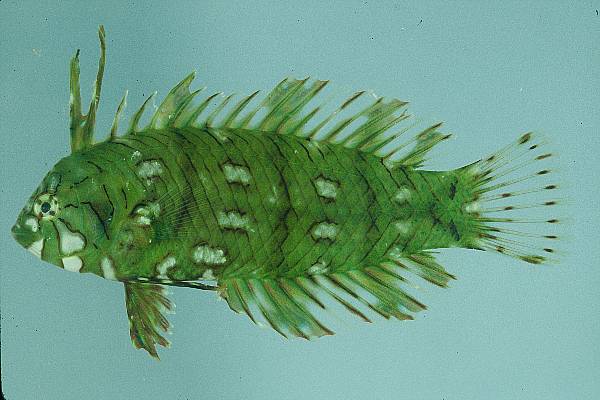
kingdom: Animalia
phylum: Chordata
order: Perciformes
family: Labridae
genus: Novaculichthys
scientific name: Novaculichthys taeniourus
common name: Rockmover wrasse
